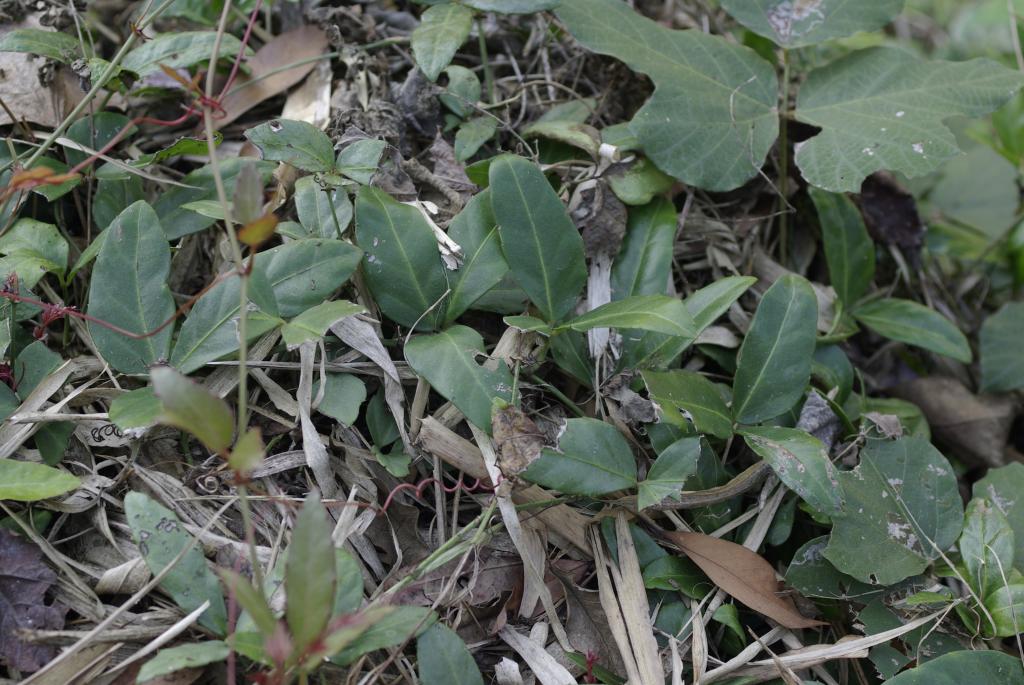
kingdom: Plantae
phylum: Tracheophyta
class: Magnoliopsida
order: Vitales
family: Vitaceae
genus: Tetrastigma
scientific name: Tetrastigma formosanum
